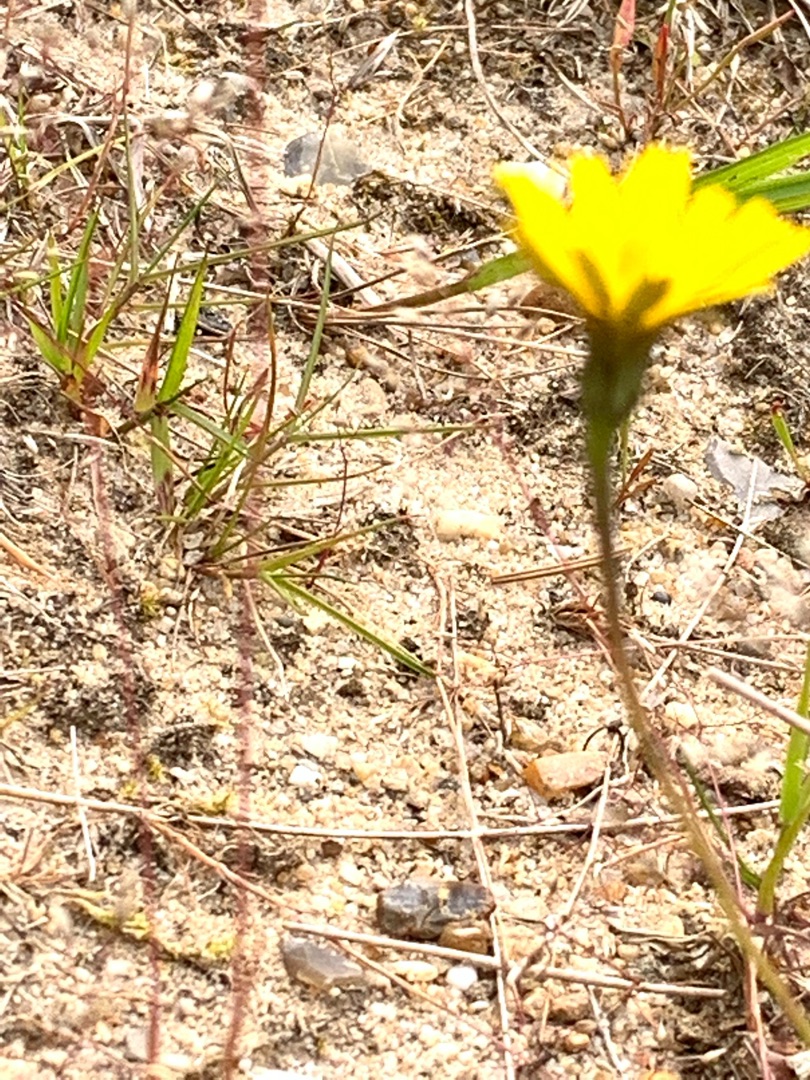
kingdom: Plantae
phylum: Tracheophyta
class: Magnoliopsida
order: Asterales
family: Asteraceae
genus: Hypochaeris
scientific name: Hypochaeris radicata
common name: Almindelig kongepen
